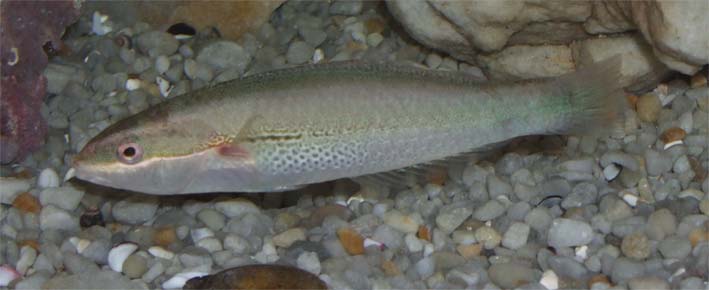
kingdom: Animalia
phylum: Chordata
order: Perciformes
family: Labridae
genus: Stethojulis
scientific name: Stethojulis interrupta
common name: Cutribbon wrasse
